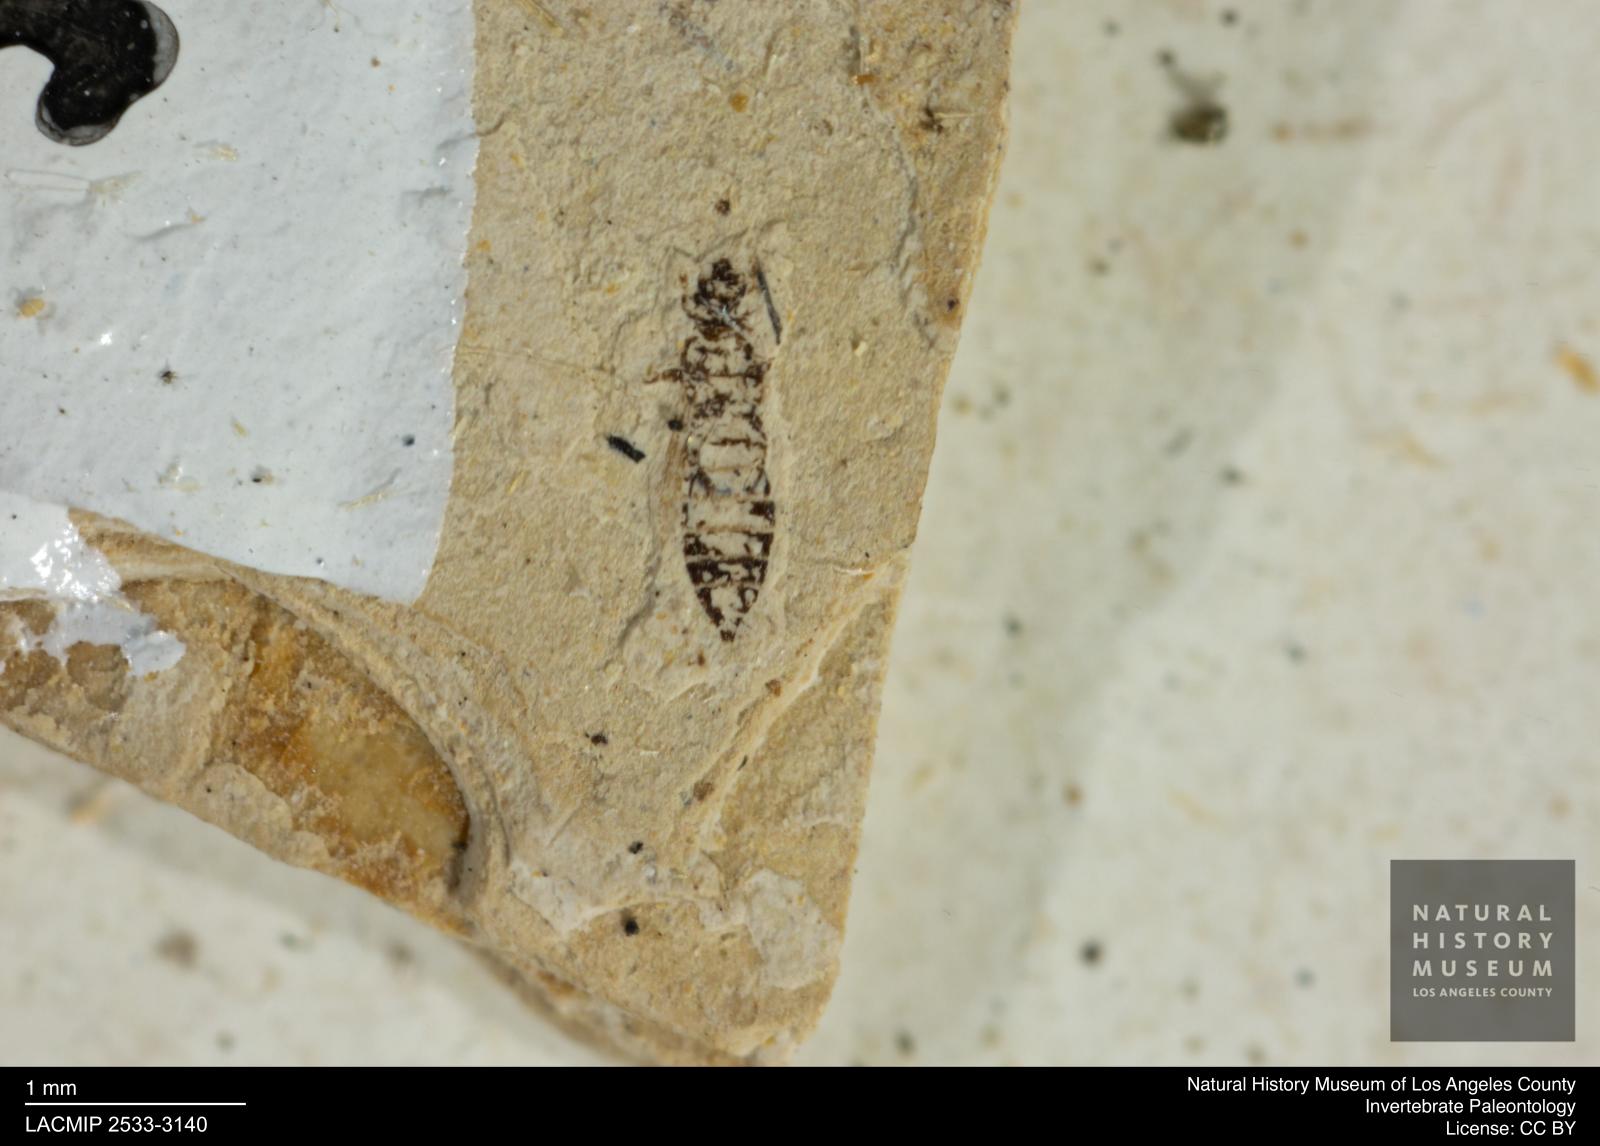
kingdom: Animalia
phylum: Arthropoda
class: Insecta
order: Thysanoptera
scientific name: Thysanoptera
